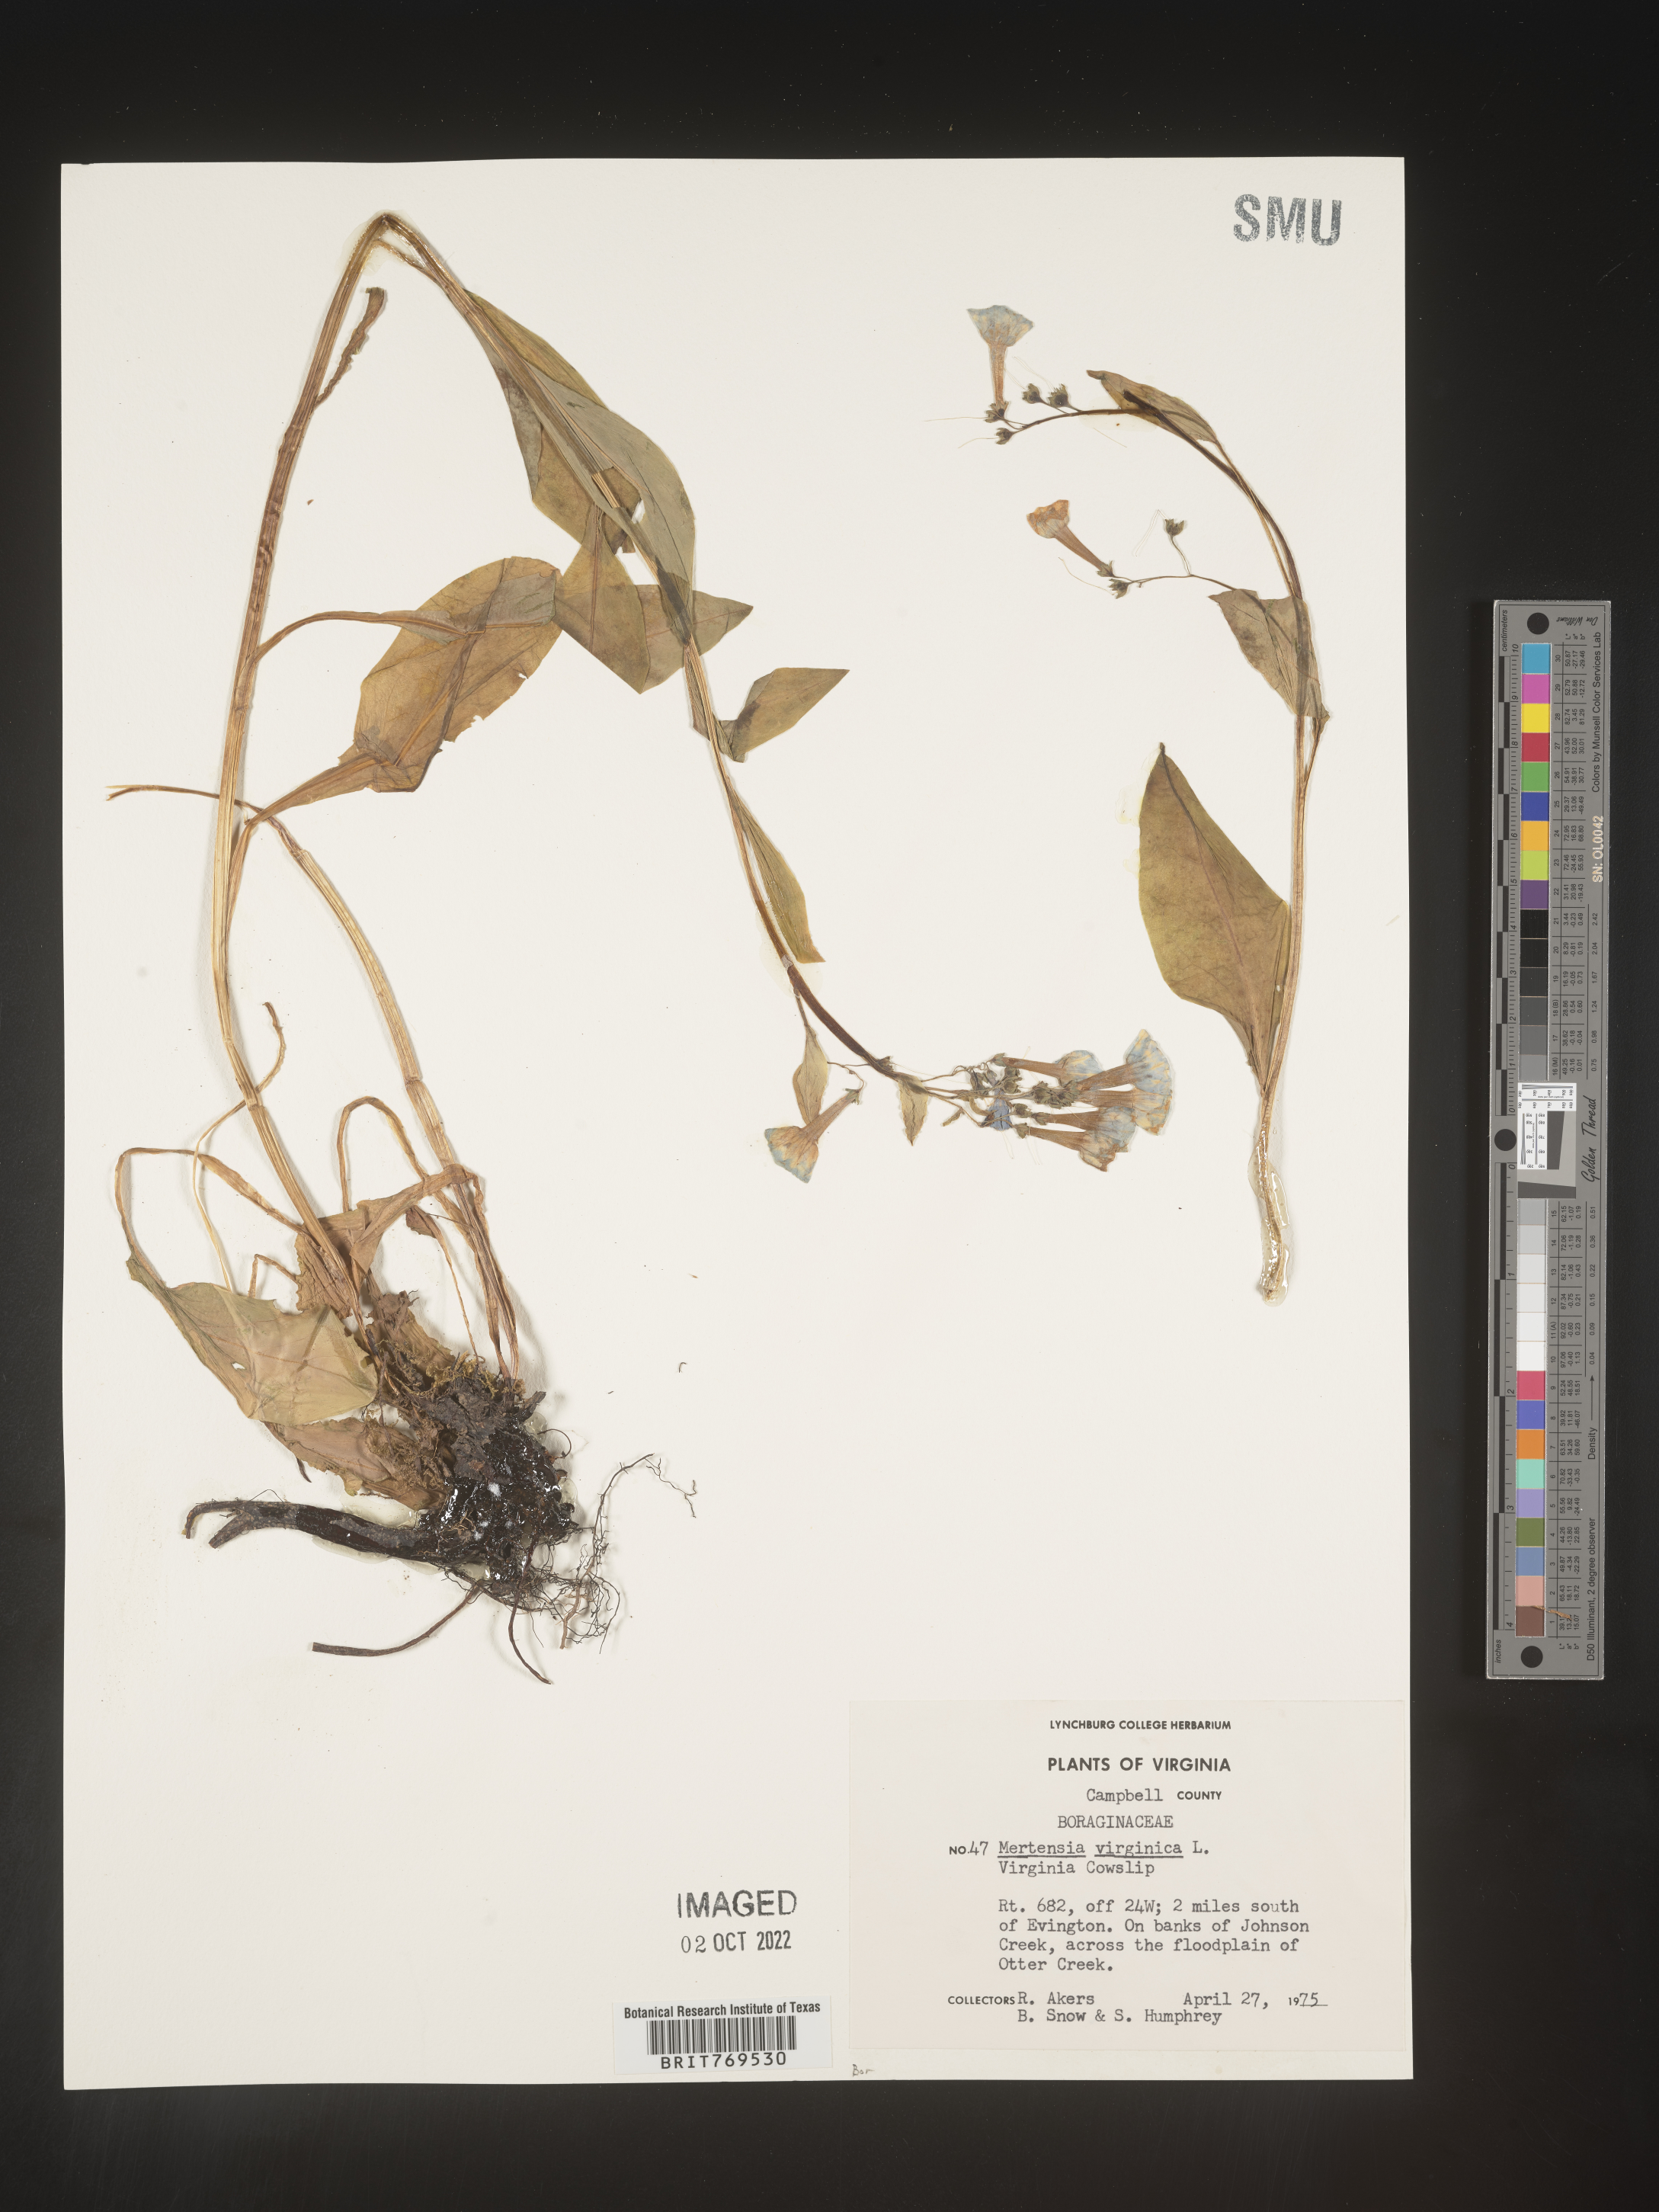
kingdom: Plantae
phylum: Tracheophyta
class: Magnoliopsida
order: Boraginales
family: Boraginaceae
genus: Mertensia
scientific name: Mertensia virginica
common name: Virginia bluebells
